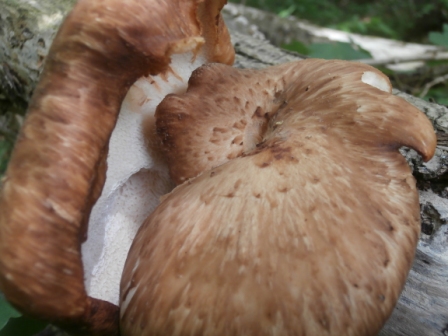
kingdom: Fungi
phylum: Basidiomycota
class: Agaricomycetes
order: Polyporales
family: Polyporaceae
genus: Cerioporus
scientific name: Cerioporus squamosus
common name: skællet stilkporesvamp
